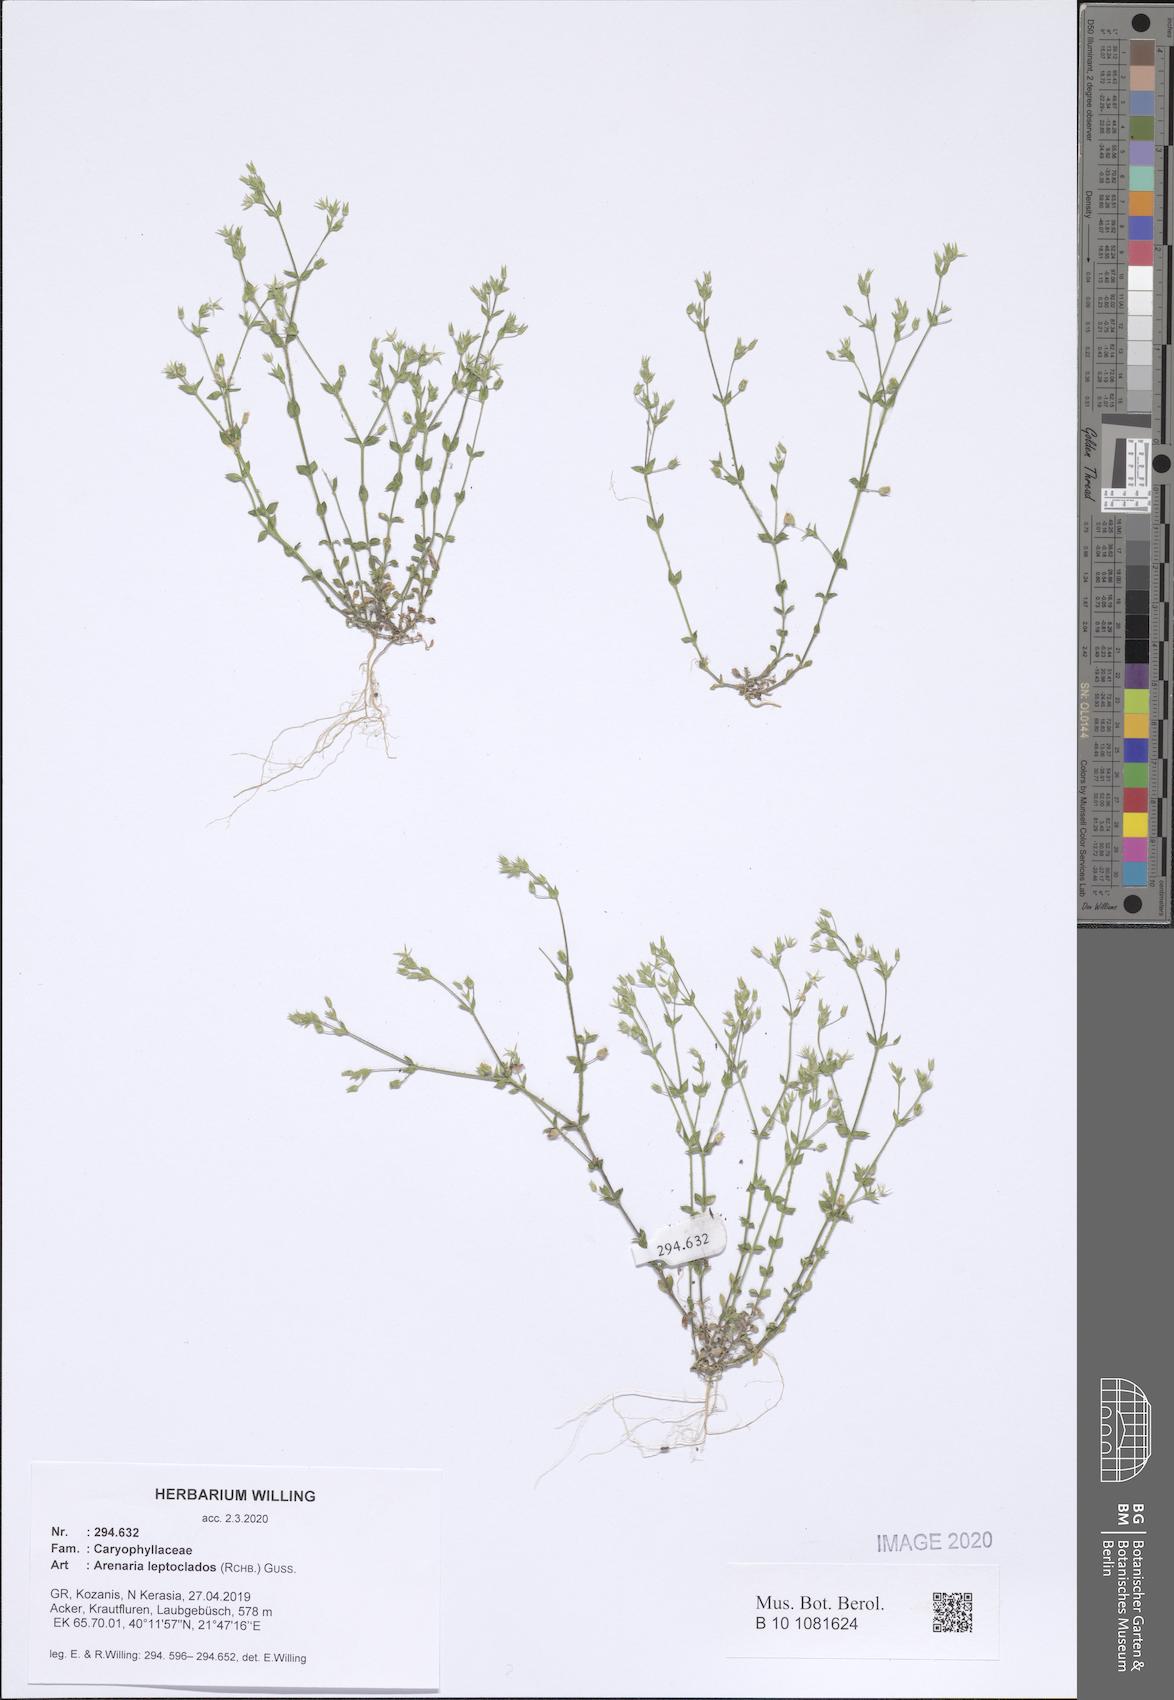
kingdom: Plantae
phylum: Tracheophyta
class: Magnoliopsida
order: Caryophyllales
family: Caryophyllaceae
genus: Arenaria
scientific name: Arenaria leptoclados
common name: Thyme-leaved sandwort
